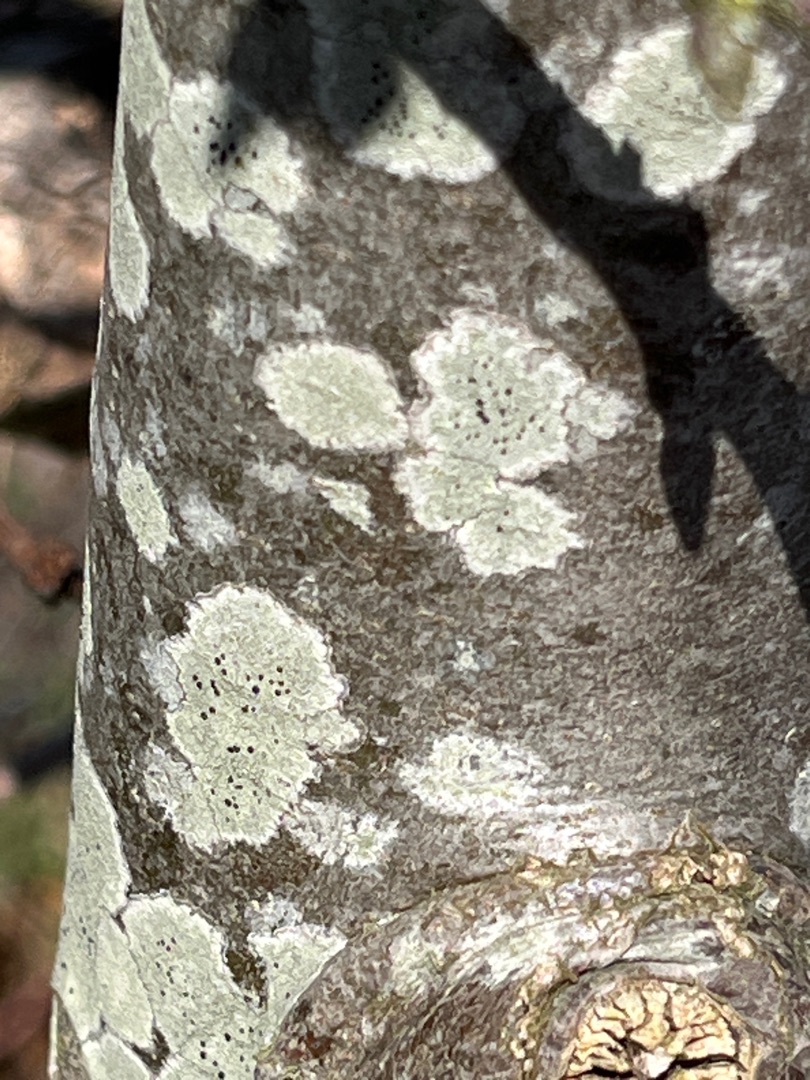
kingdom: Fungi
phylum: Ascomycota
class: Lecanoromycetes
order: Lecanorales
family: Lecanoraceae
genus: Lecidella
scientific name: Lecidella elaeochroma
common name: Grågrøn skivelav
